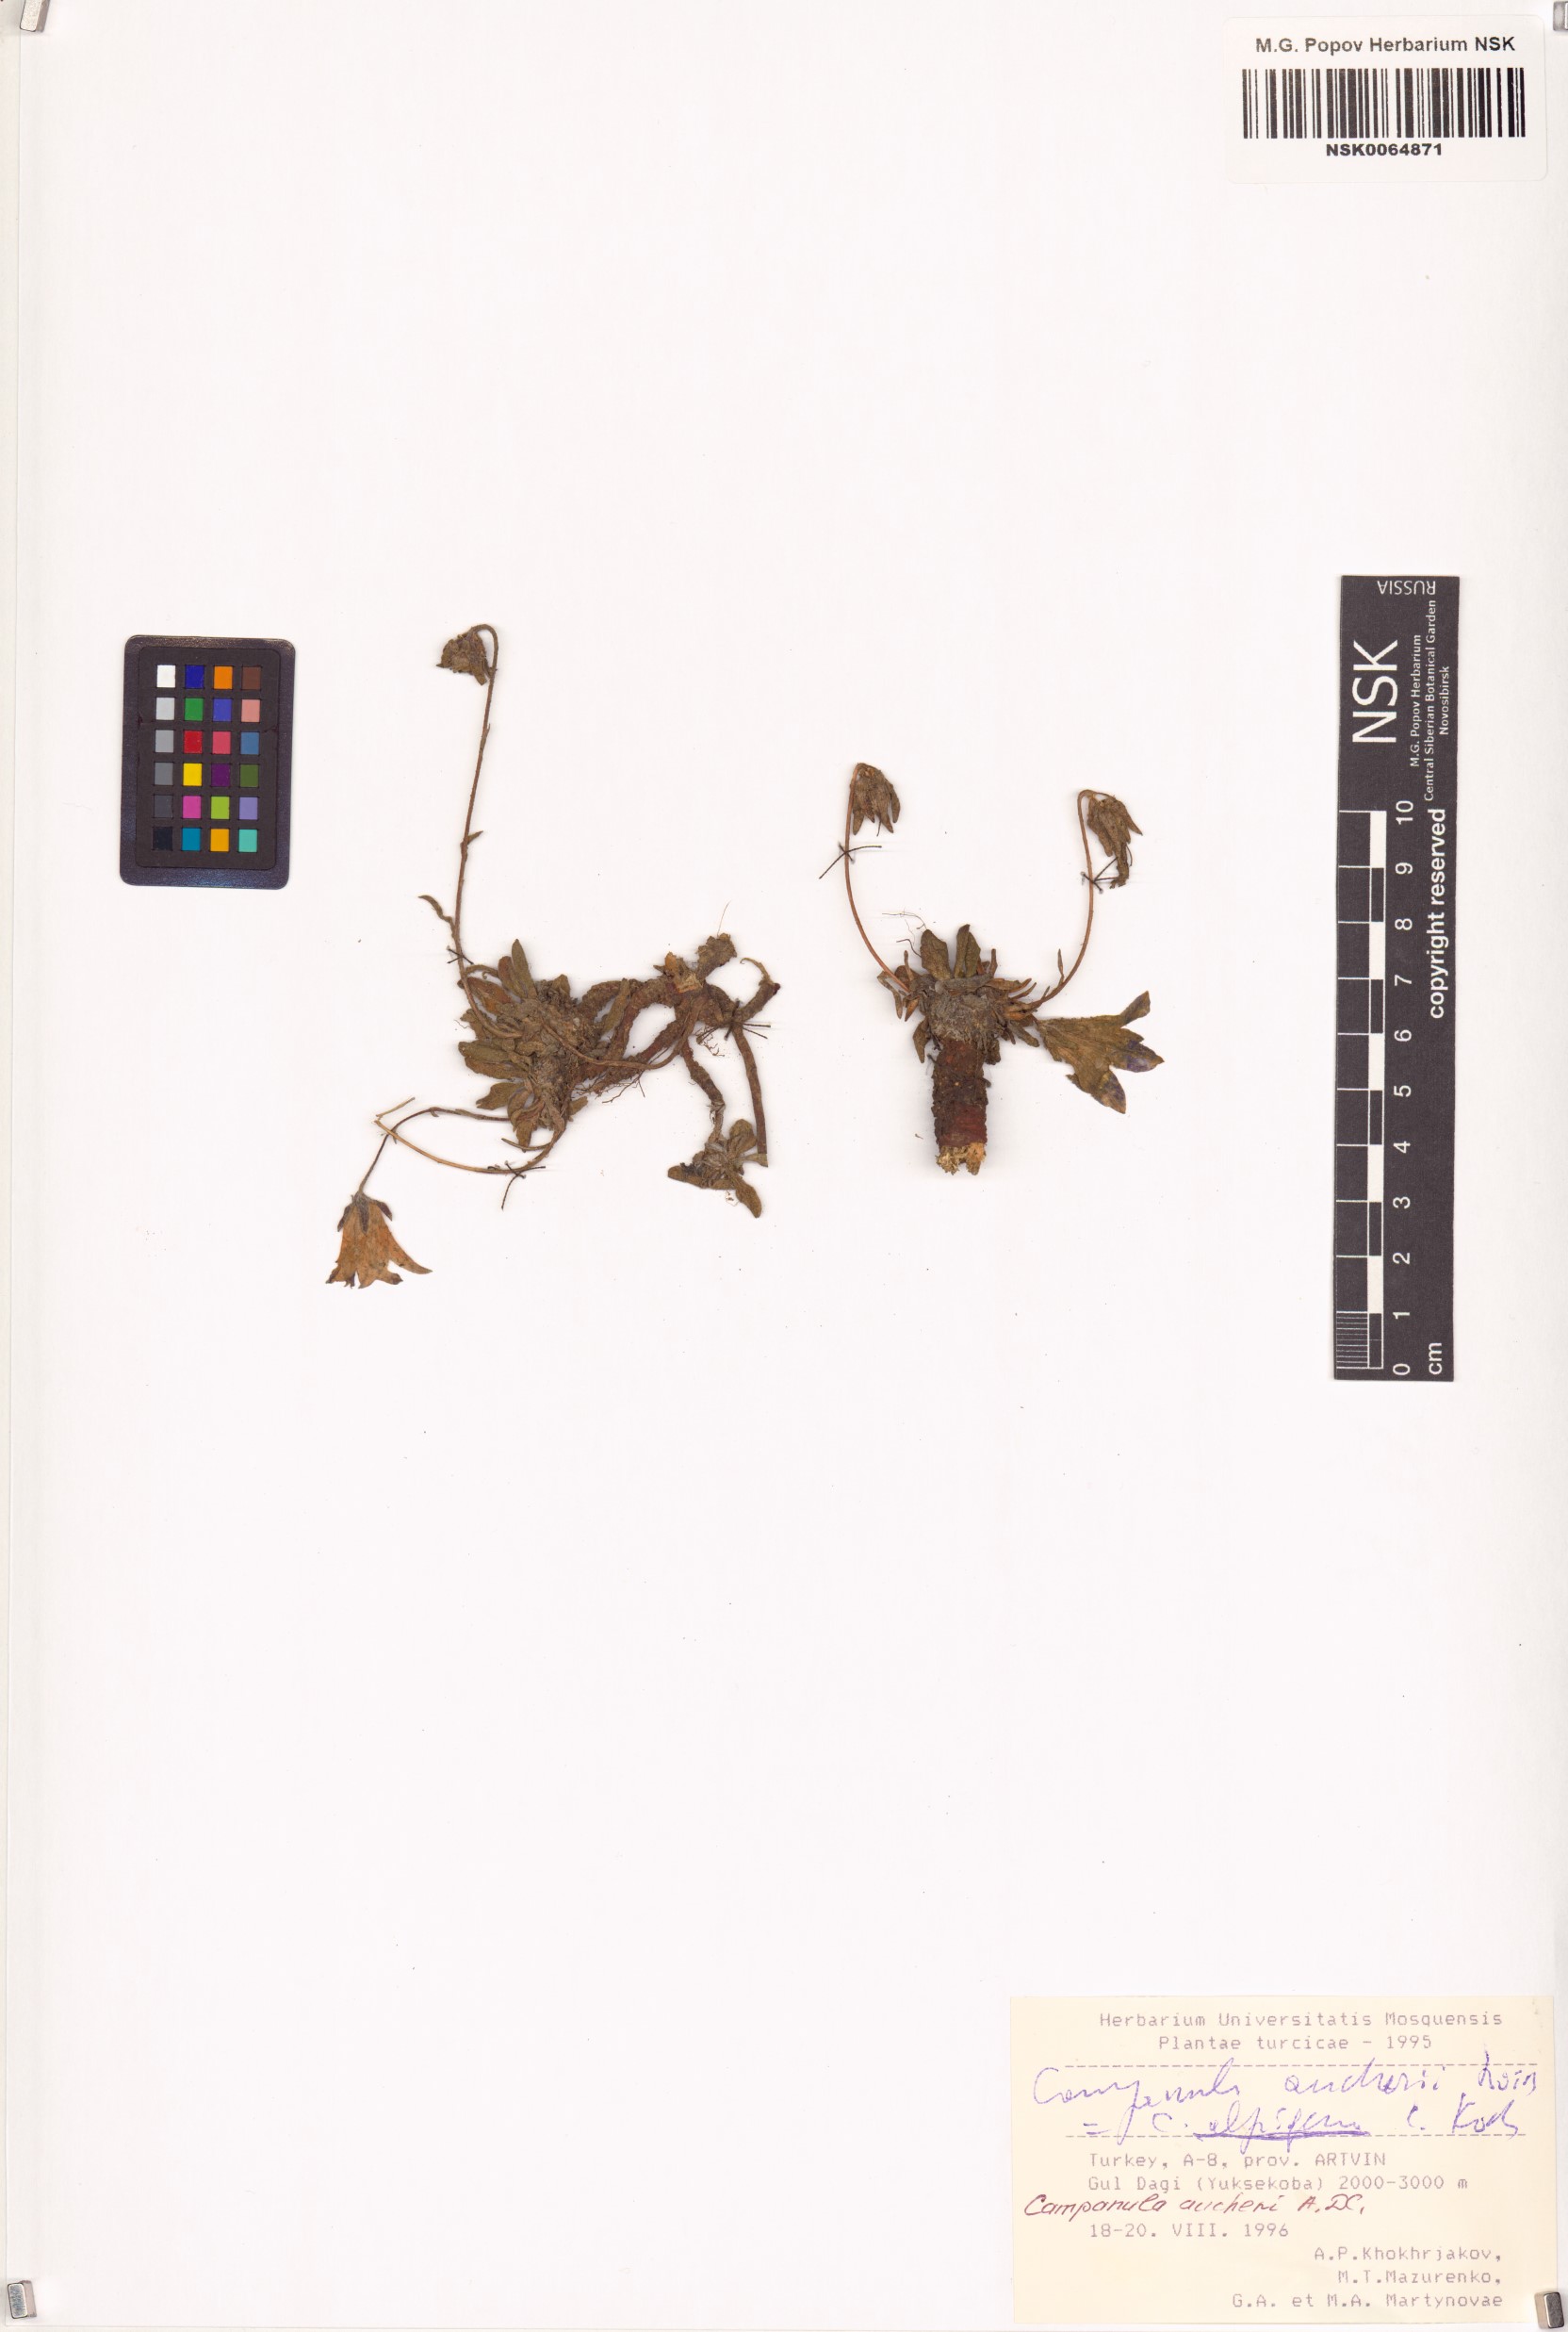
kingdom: Plantae
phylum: Tracheophyta
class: Magnoliopsida
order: Asterales
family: Campanulaceae
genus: Campanula
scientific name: Campanula saxifraga
